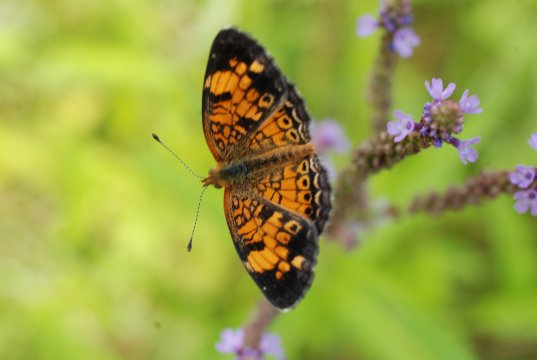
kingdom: Animalia
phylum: Arthropoda
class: Insecta
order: Lepidoptera
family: Nymphalidae
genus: Phyciodes
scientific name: Phyciodes tharos
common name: Pearl Crescent
